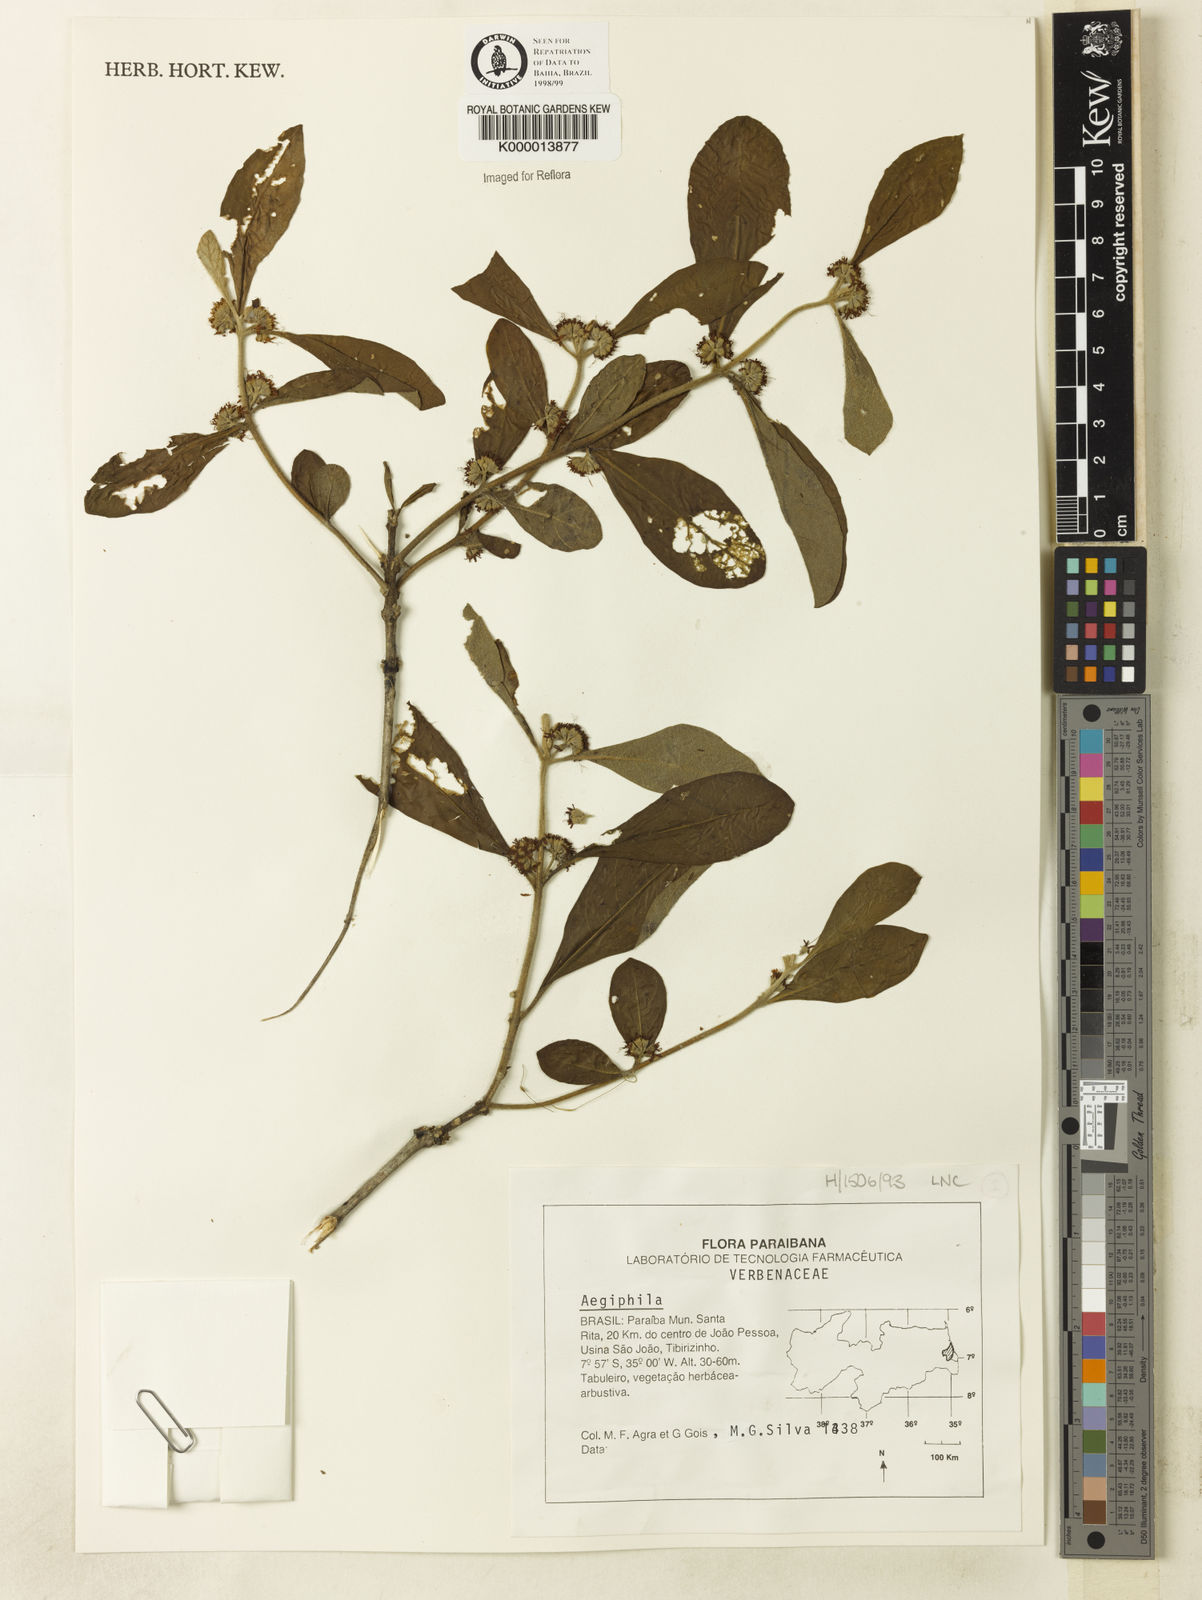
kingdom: Plantae
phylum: Tracheophyta
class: Magnoliopsida
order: Lamiales
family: Lamiaceae
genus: Aegiphila
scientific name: Aegiphila
